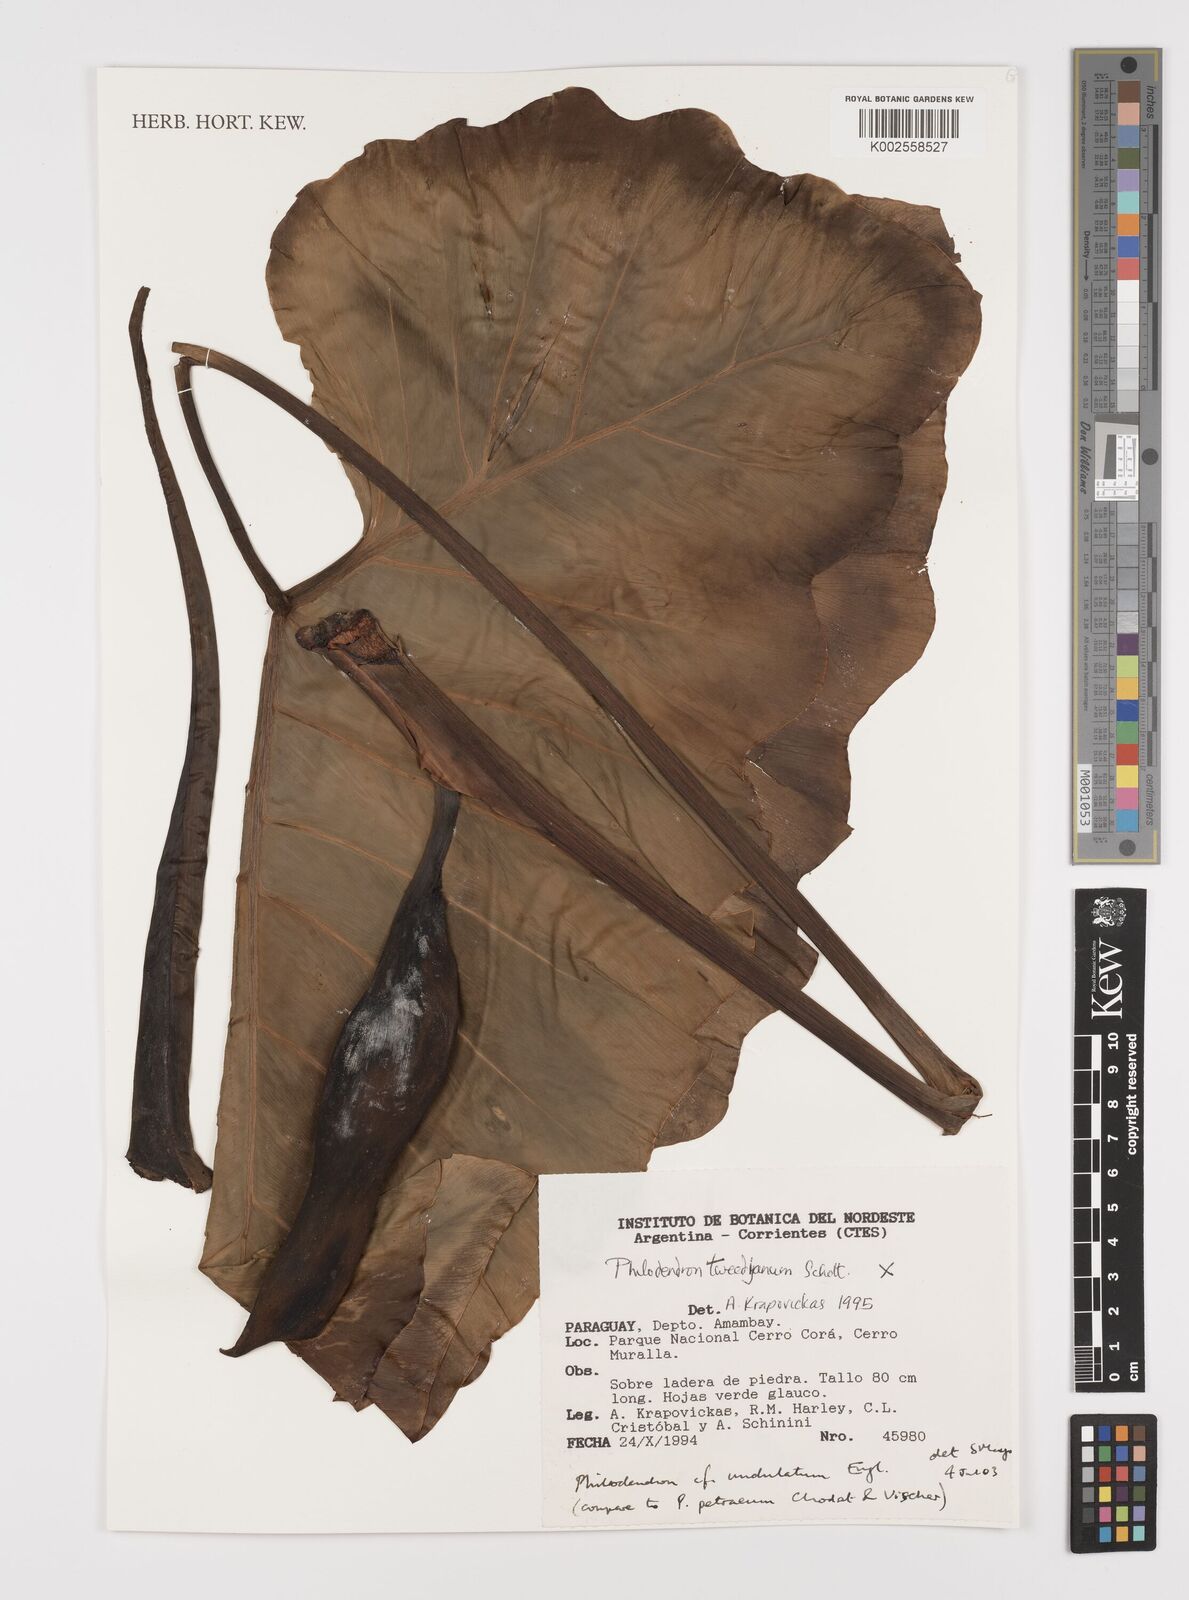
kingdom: Plantae
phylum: Tracheophyta
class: Liliopsida
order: Alismatales
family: Araceae
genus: Thaumatophyllum
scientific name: Thaumatophyllum undulatum
